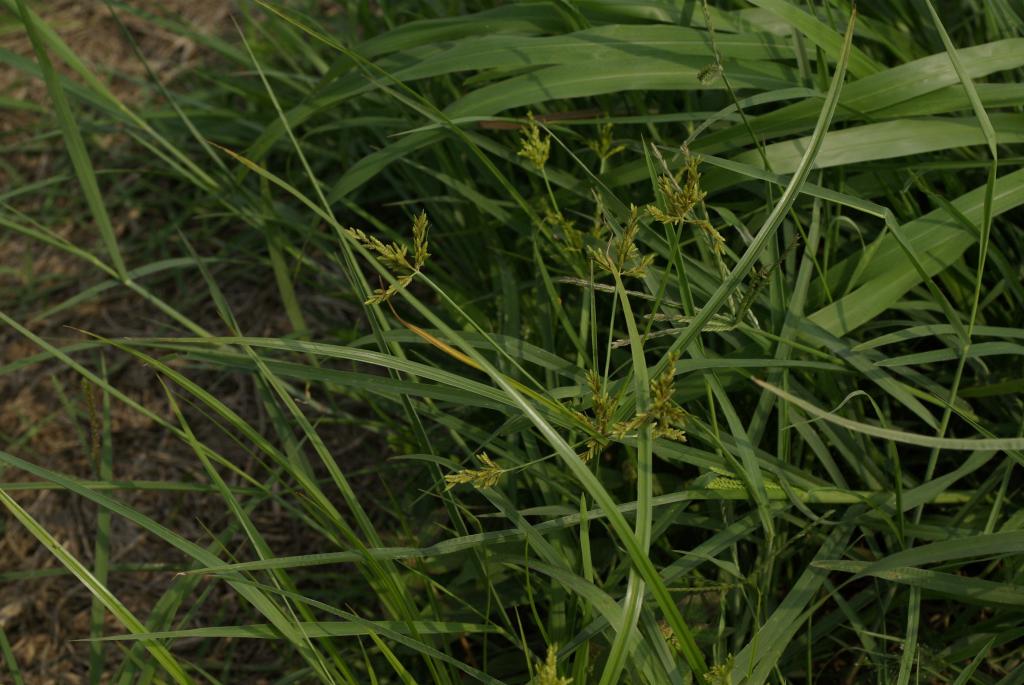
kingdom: Plantae
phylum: Tracheophyta
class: Liliopsida
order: Poales
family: Cyperaceae
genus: Cyperus
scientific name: Cyperus iria
